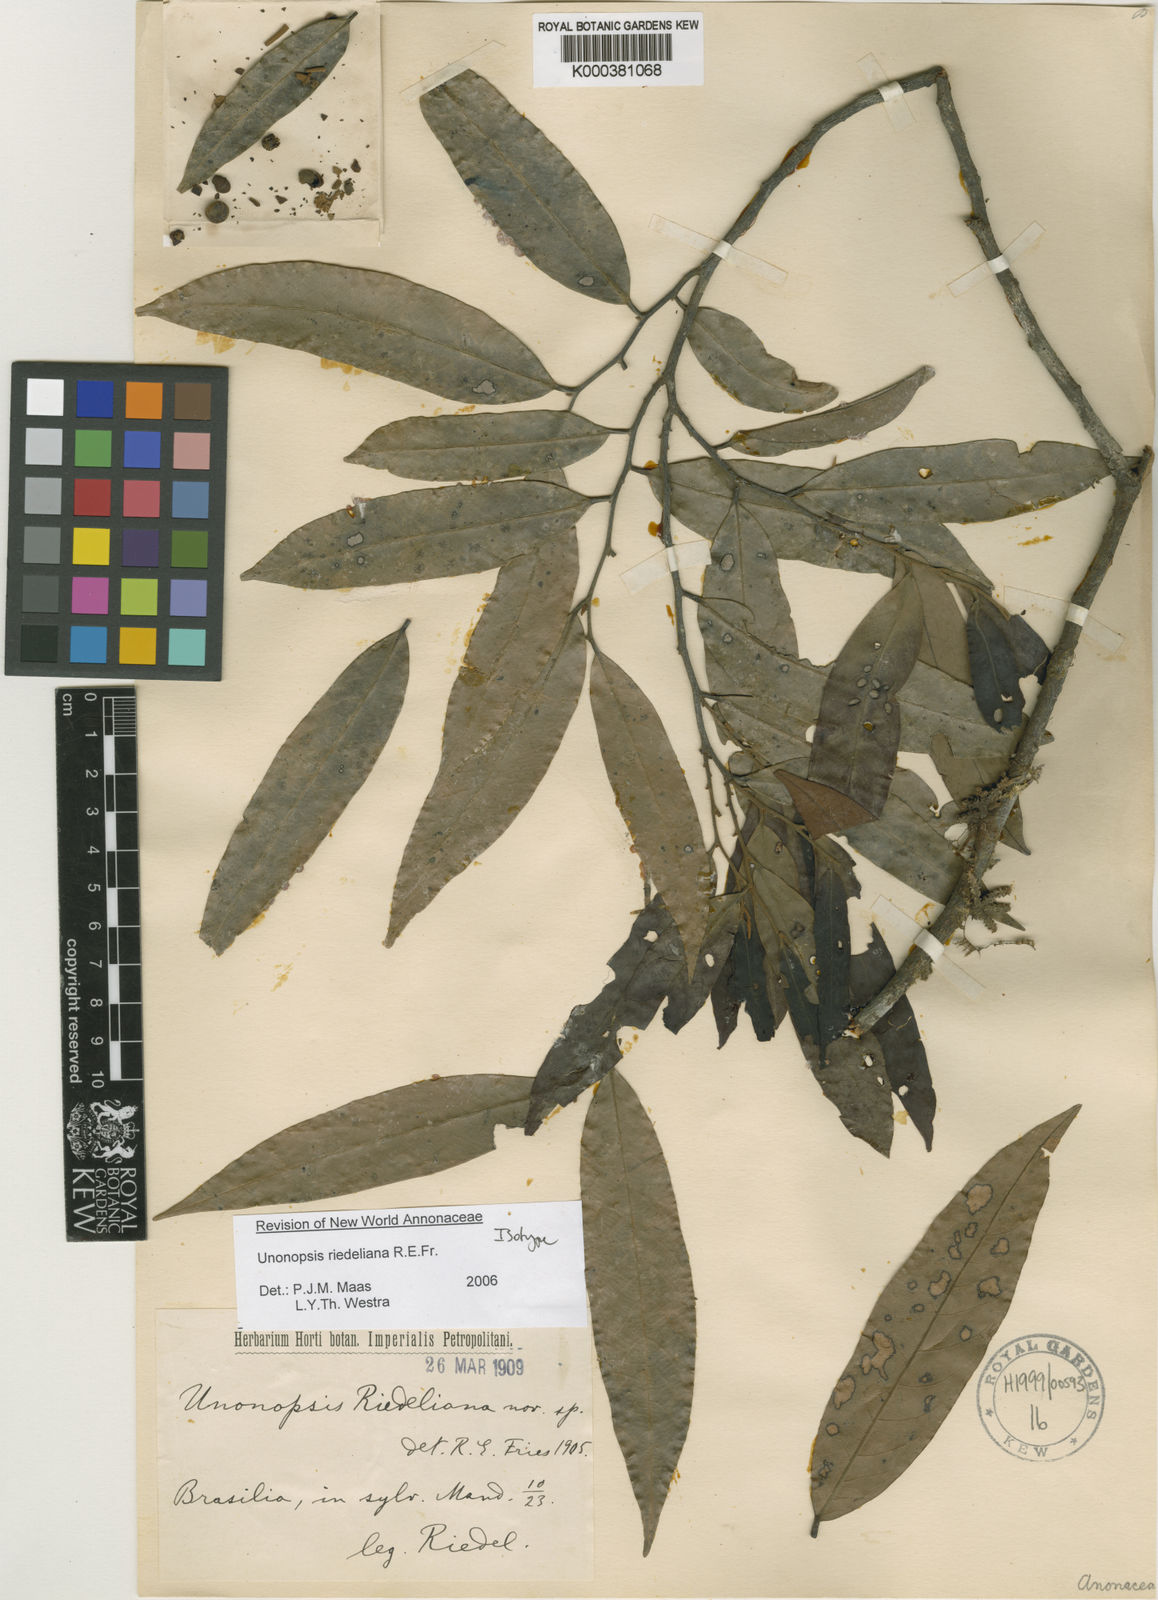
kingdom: Plantae
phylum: Tracheophyta
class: Magnoliopsida
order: Magnoliales
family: Annonaceae
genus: Unonopsis
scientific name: Unonopsis riedeliana
